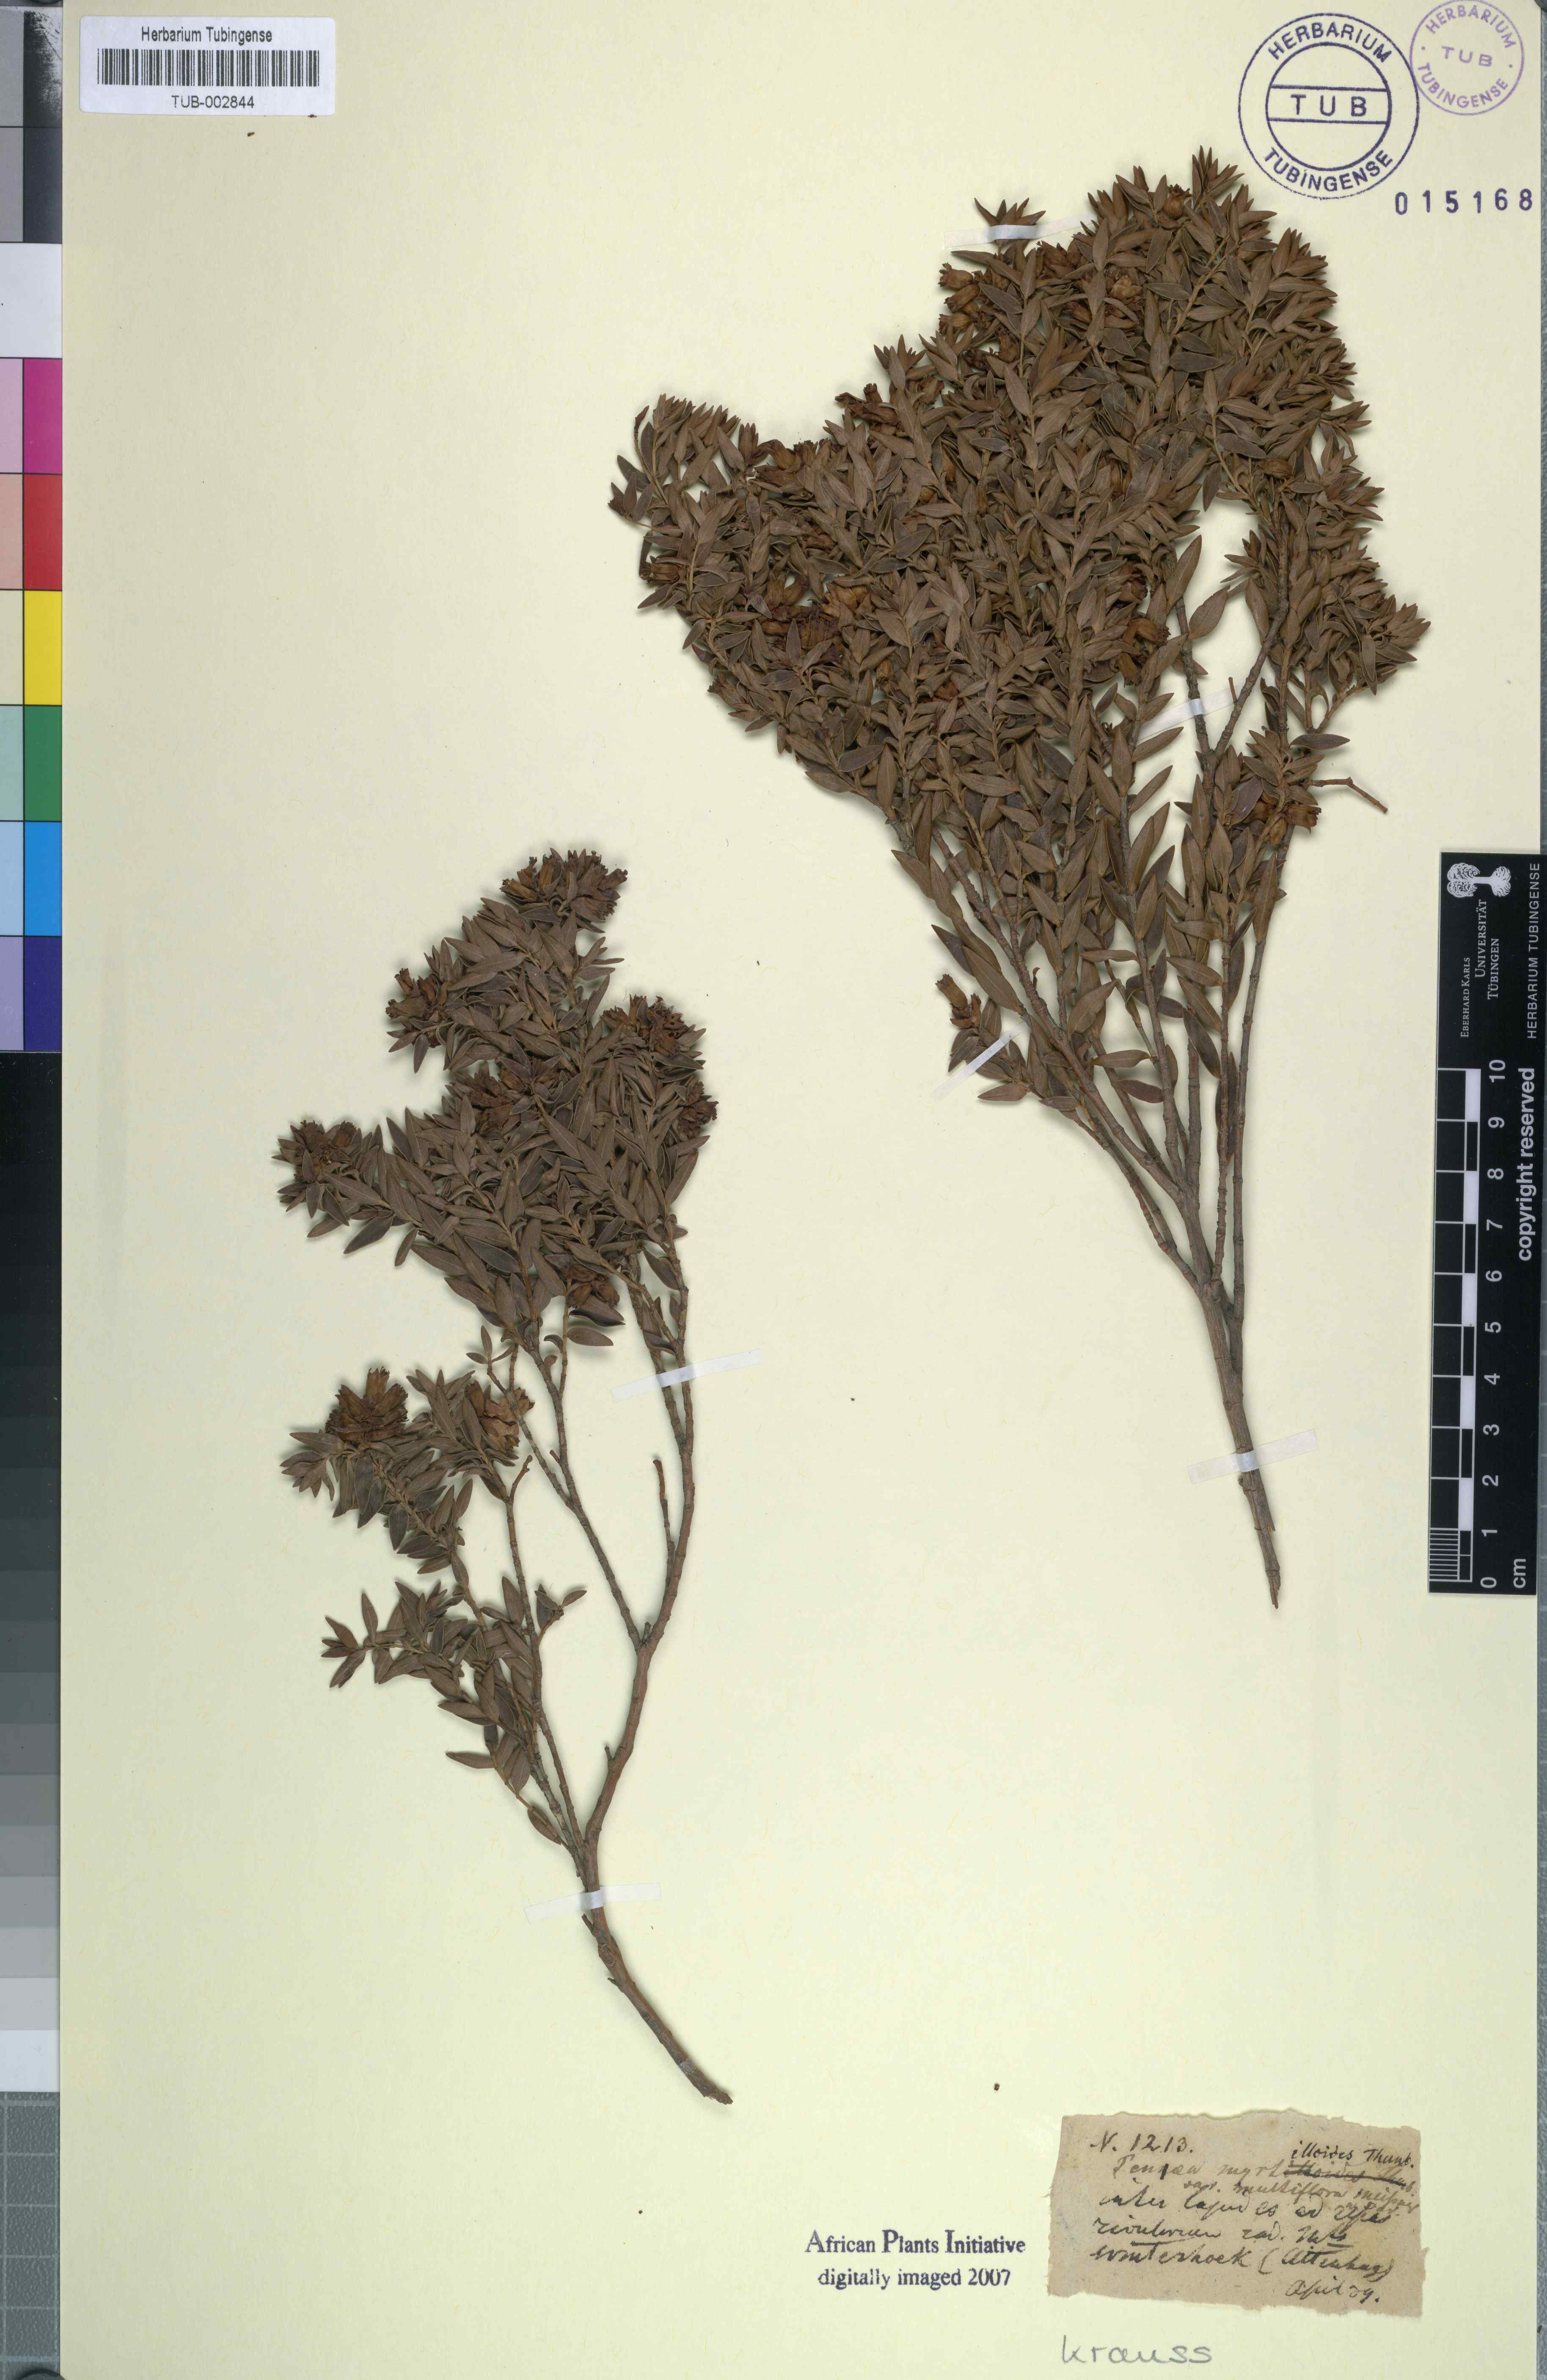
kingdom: Plantae
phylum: Tracheophyta
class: Magnoliopsida
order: Myrtales
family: Penaeaceae
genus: Penaea
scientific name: Penaea acutifolia
